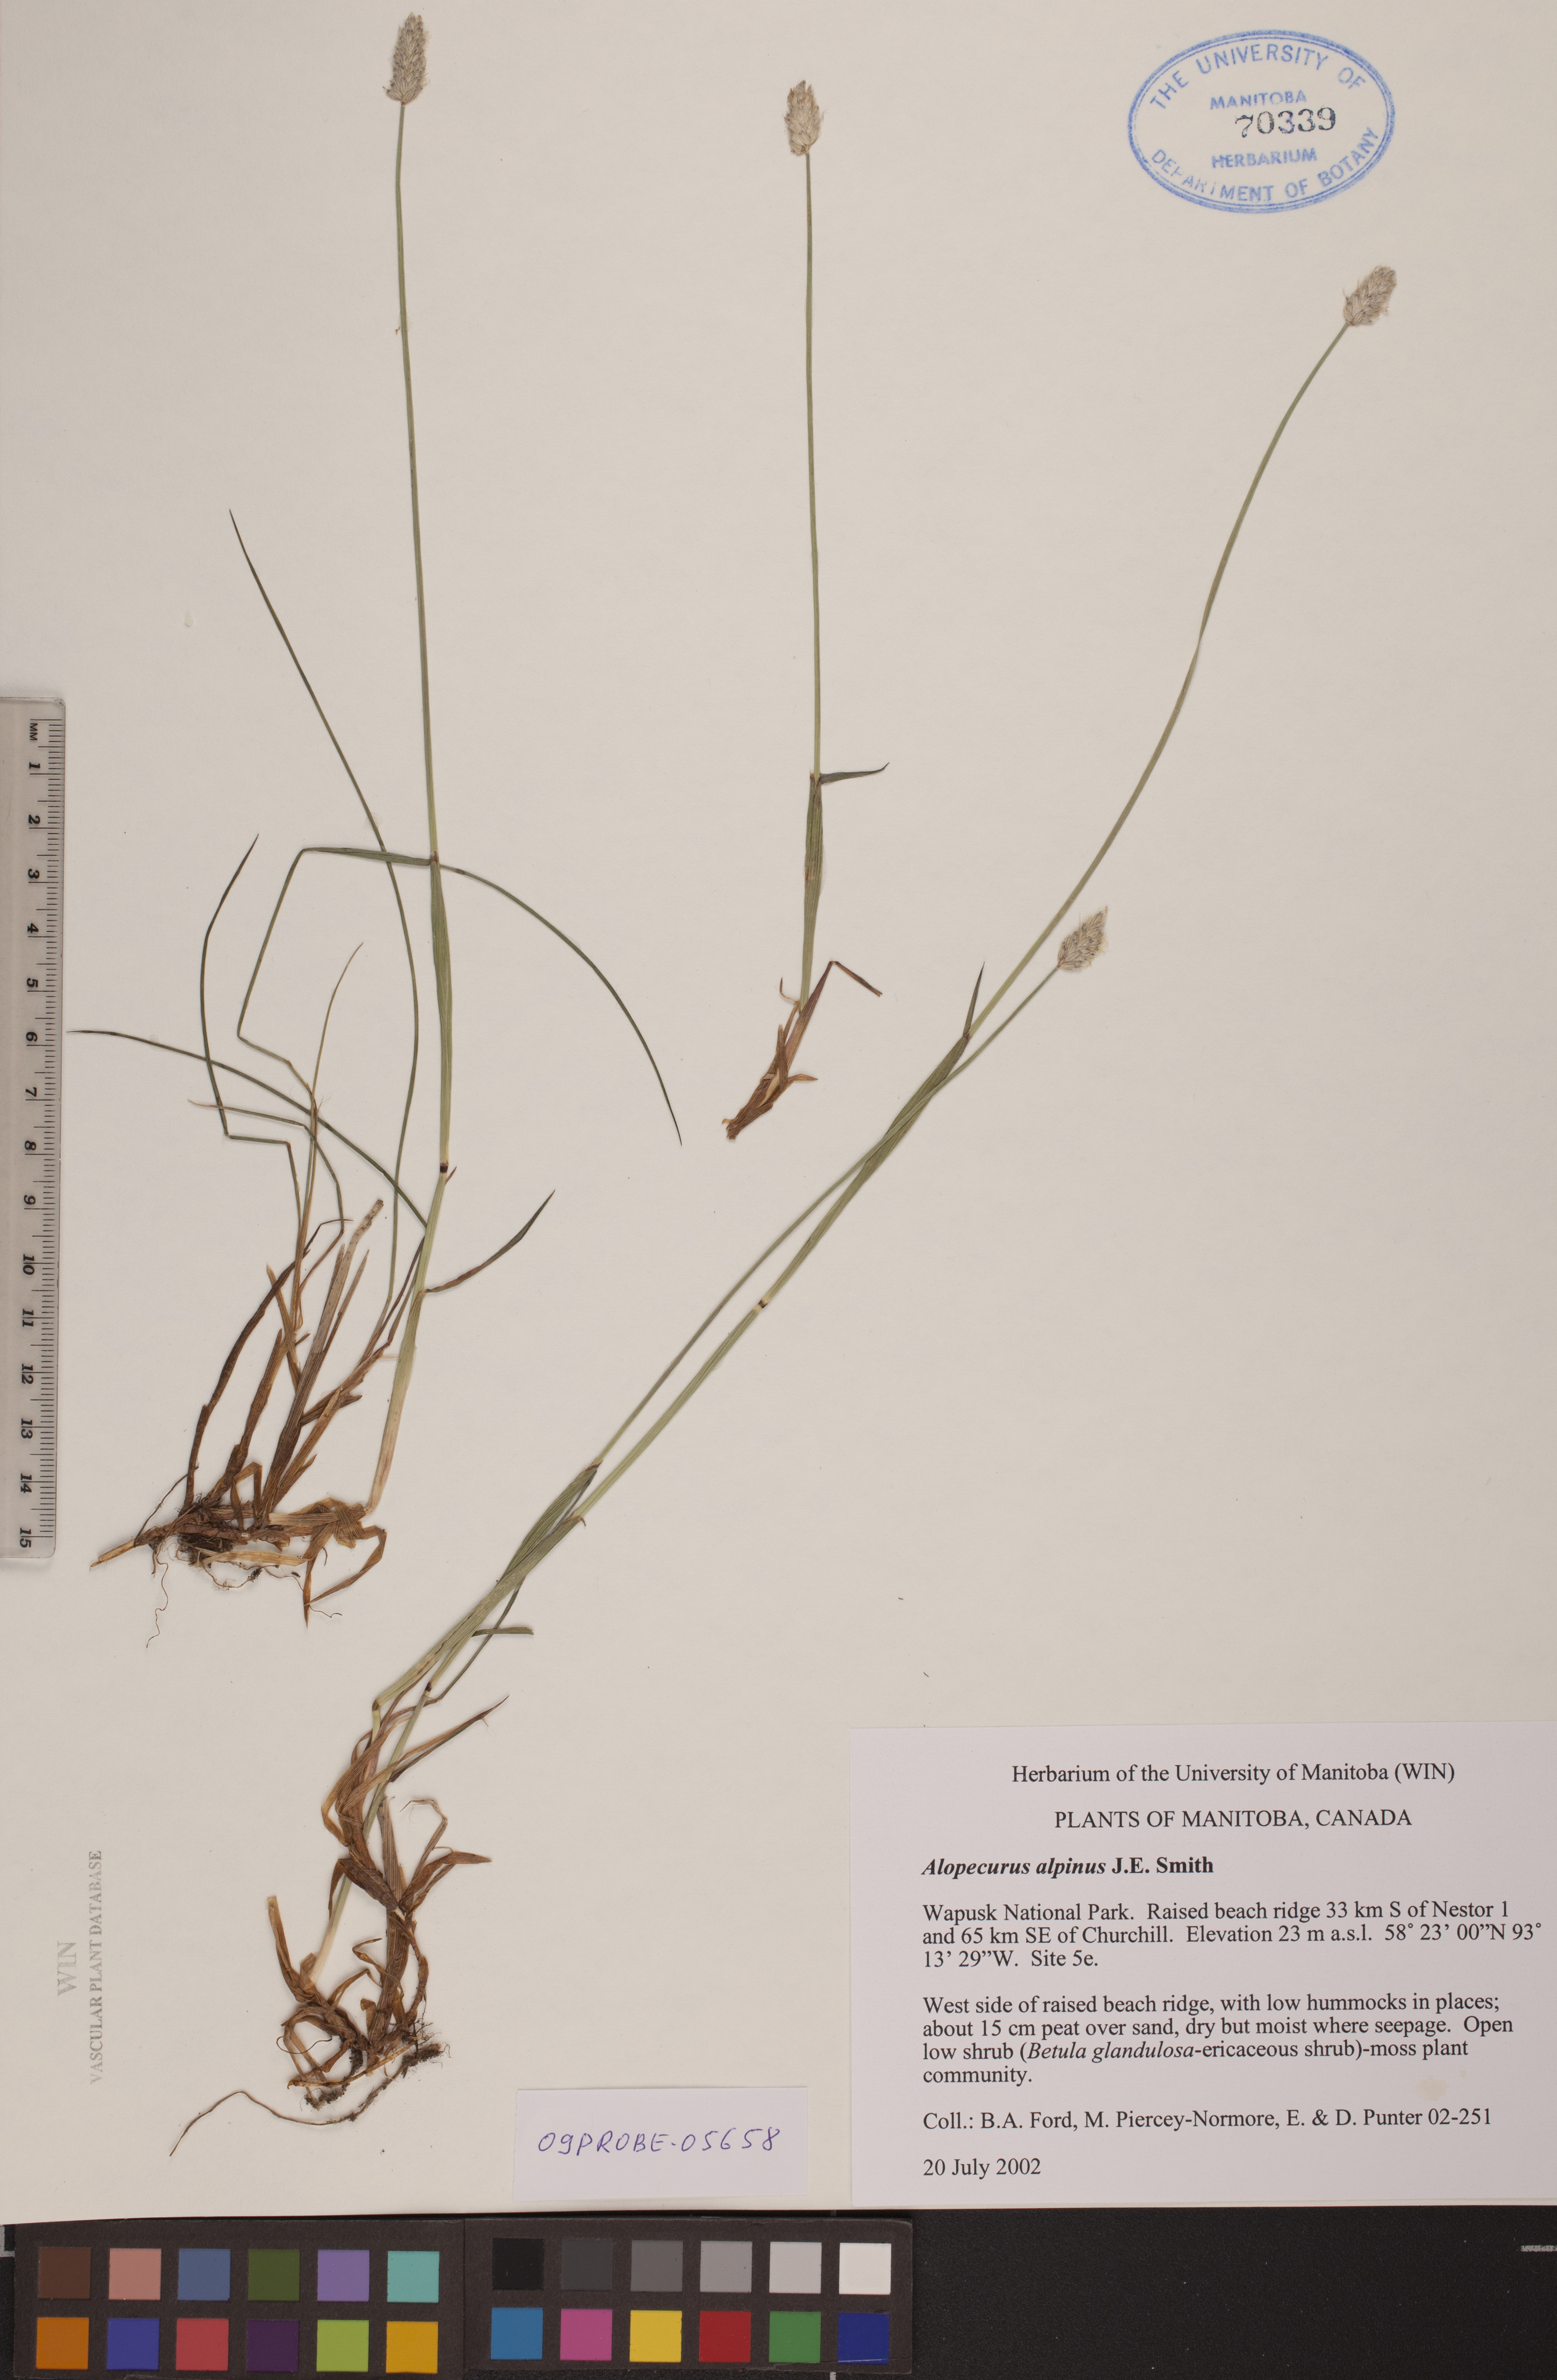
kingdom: Plantae
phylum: Tracheophyta
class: Liliopsida
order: Poales
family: Poaceae
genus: Alopecurus
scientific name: Alopecurus magellanicus
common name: Alpine foxtail
